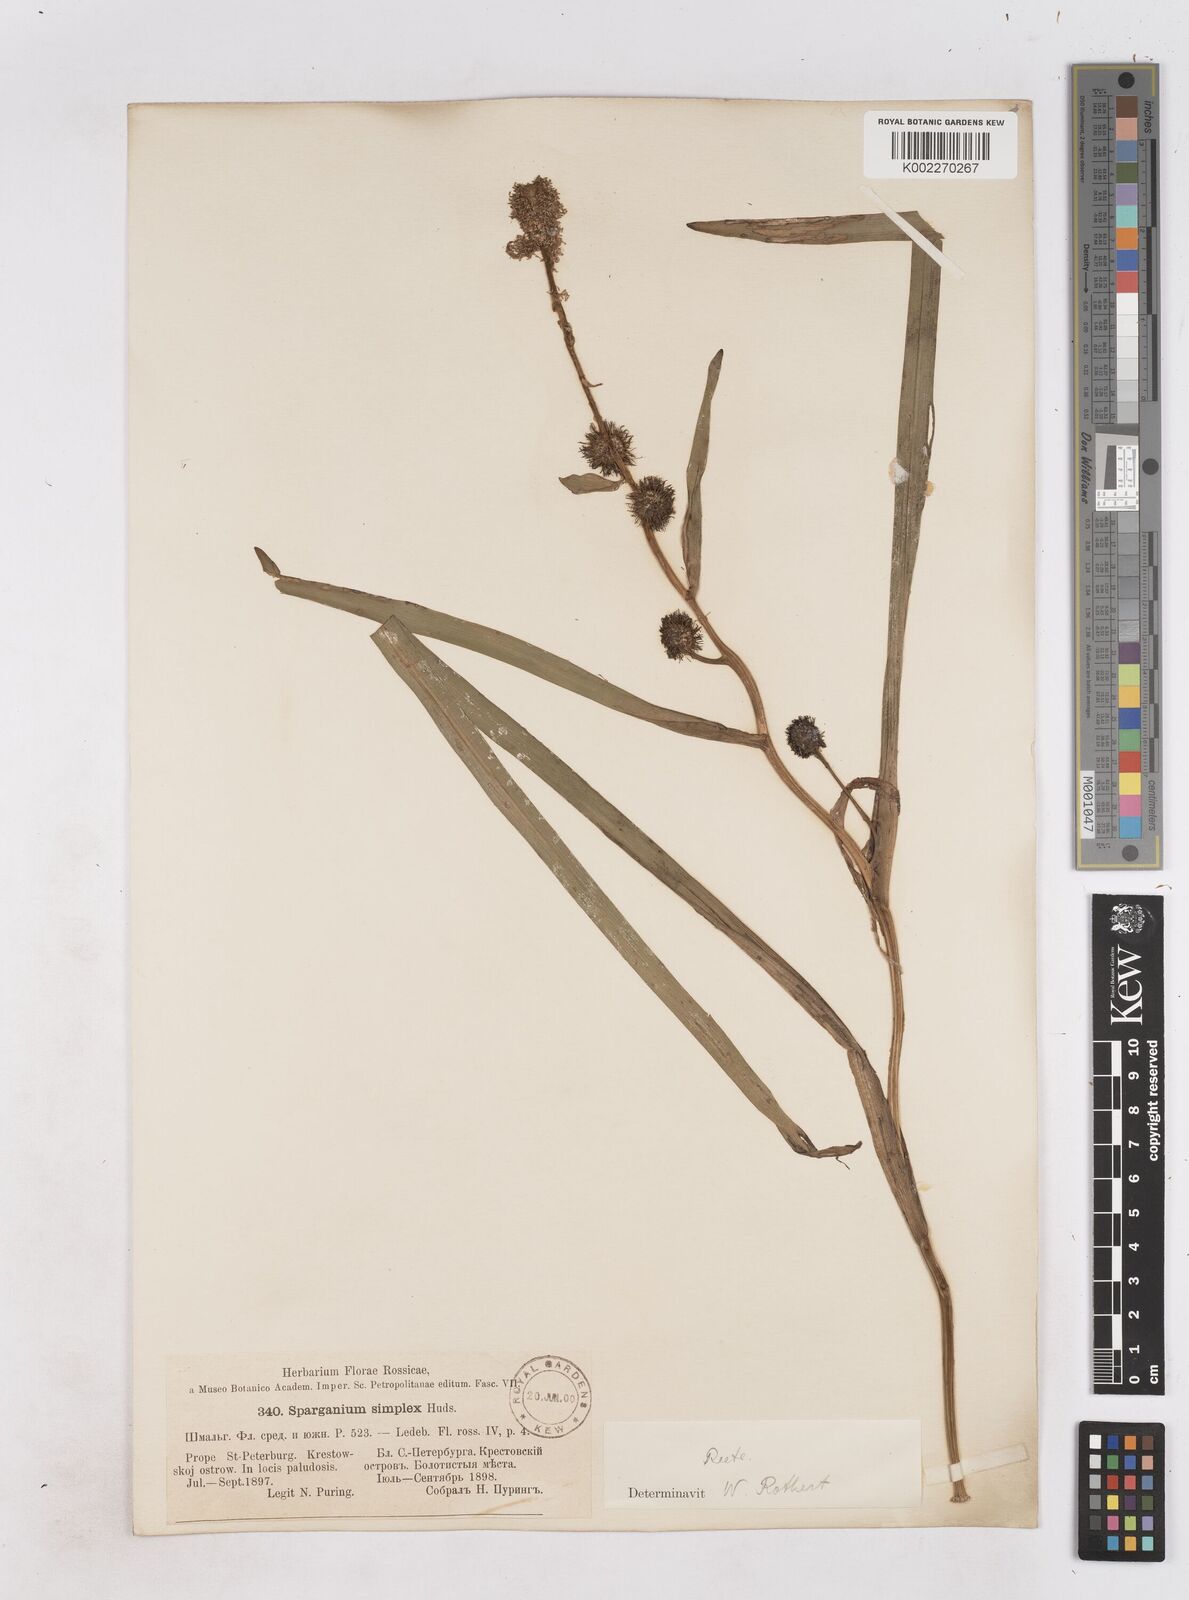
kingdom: Plantae
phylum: Tracheophyta
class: Liliopsida
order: Poales
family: Typhaceae
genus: Sparganium
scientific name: Sparganium emersum
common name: Unbranched bur-reed
